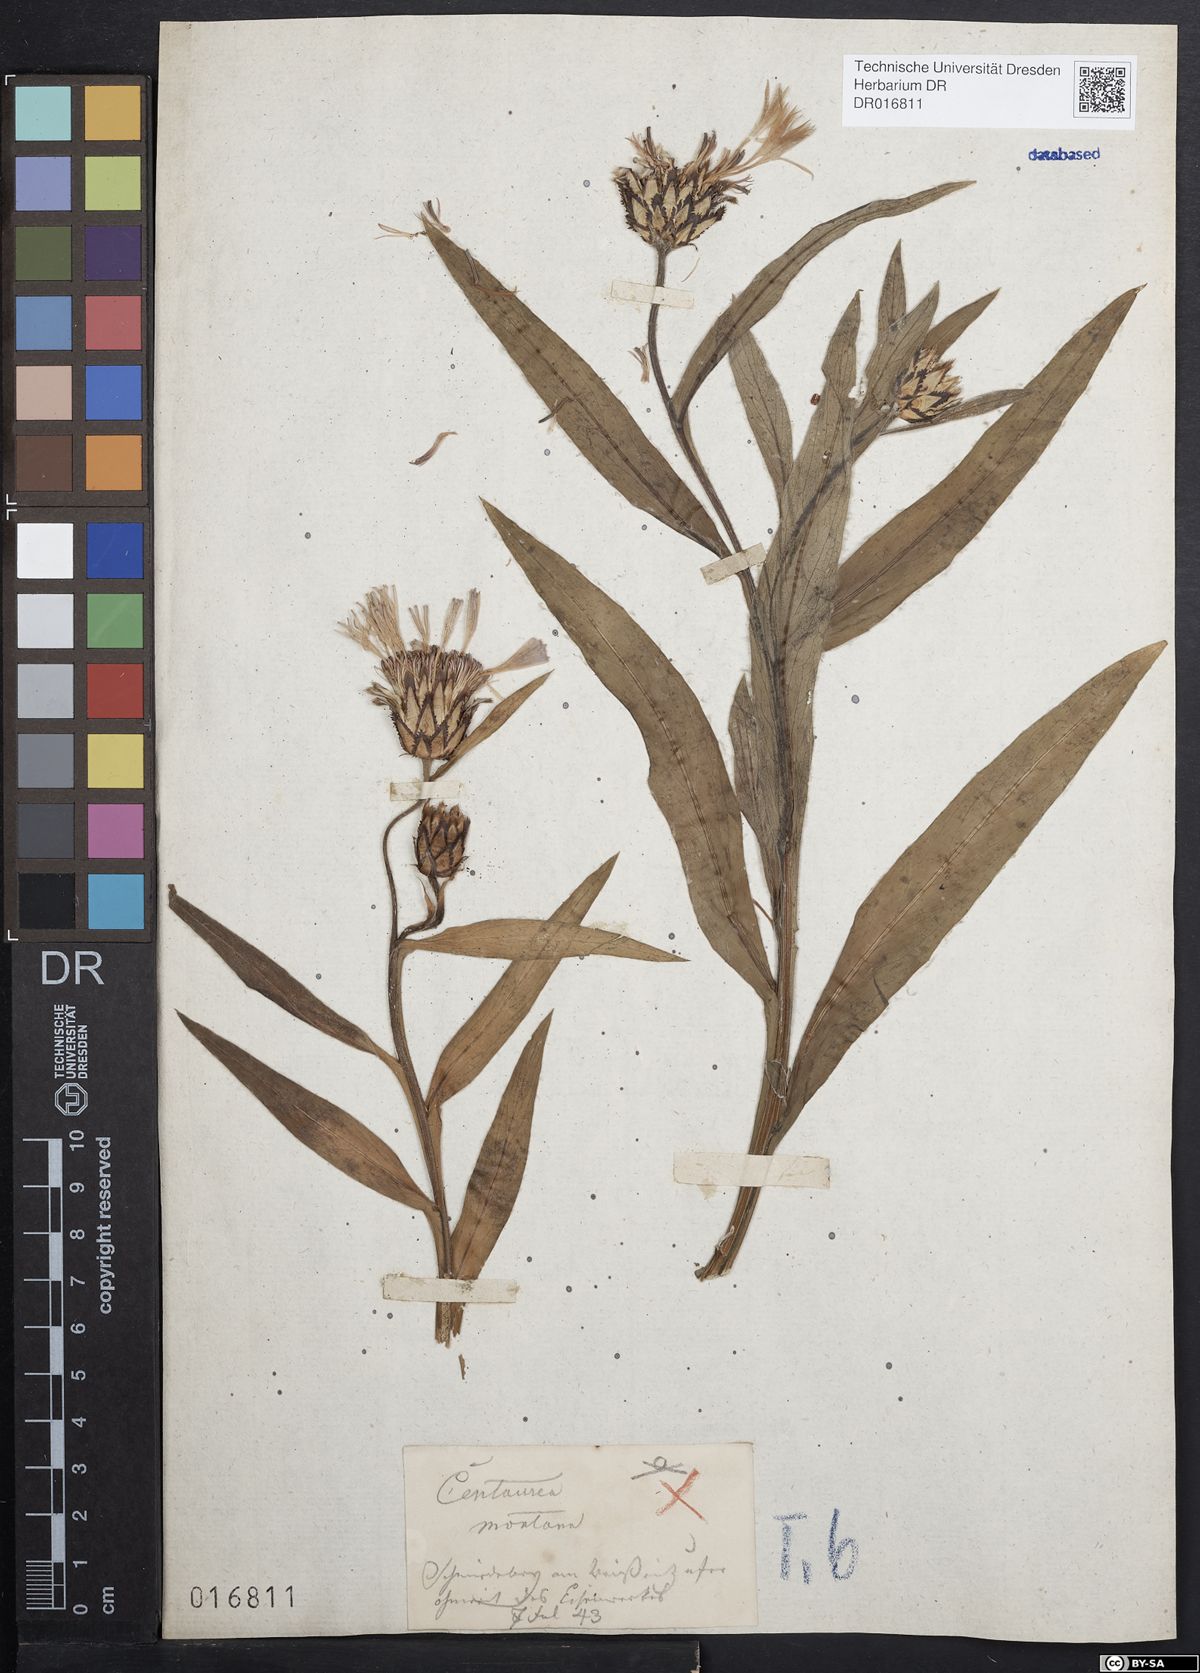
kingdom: Plantae
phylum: Tracheophyta
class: Magnoliopsida
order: Asterales
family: Asteraceae
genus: Centaurea
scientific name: Centaurea montana
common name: Perennial cornflower
